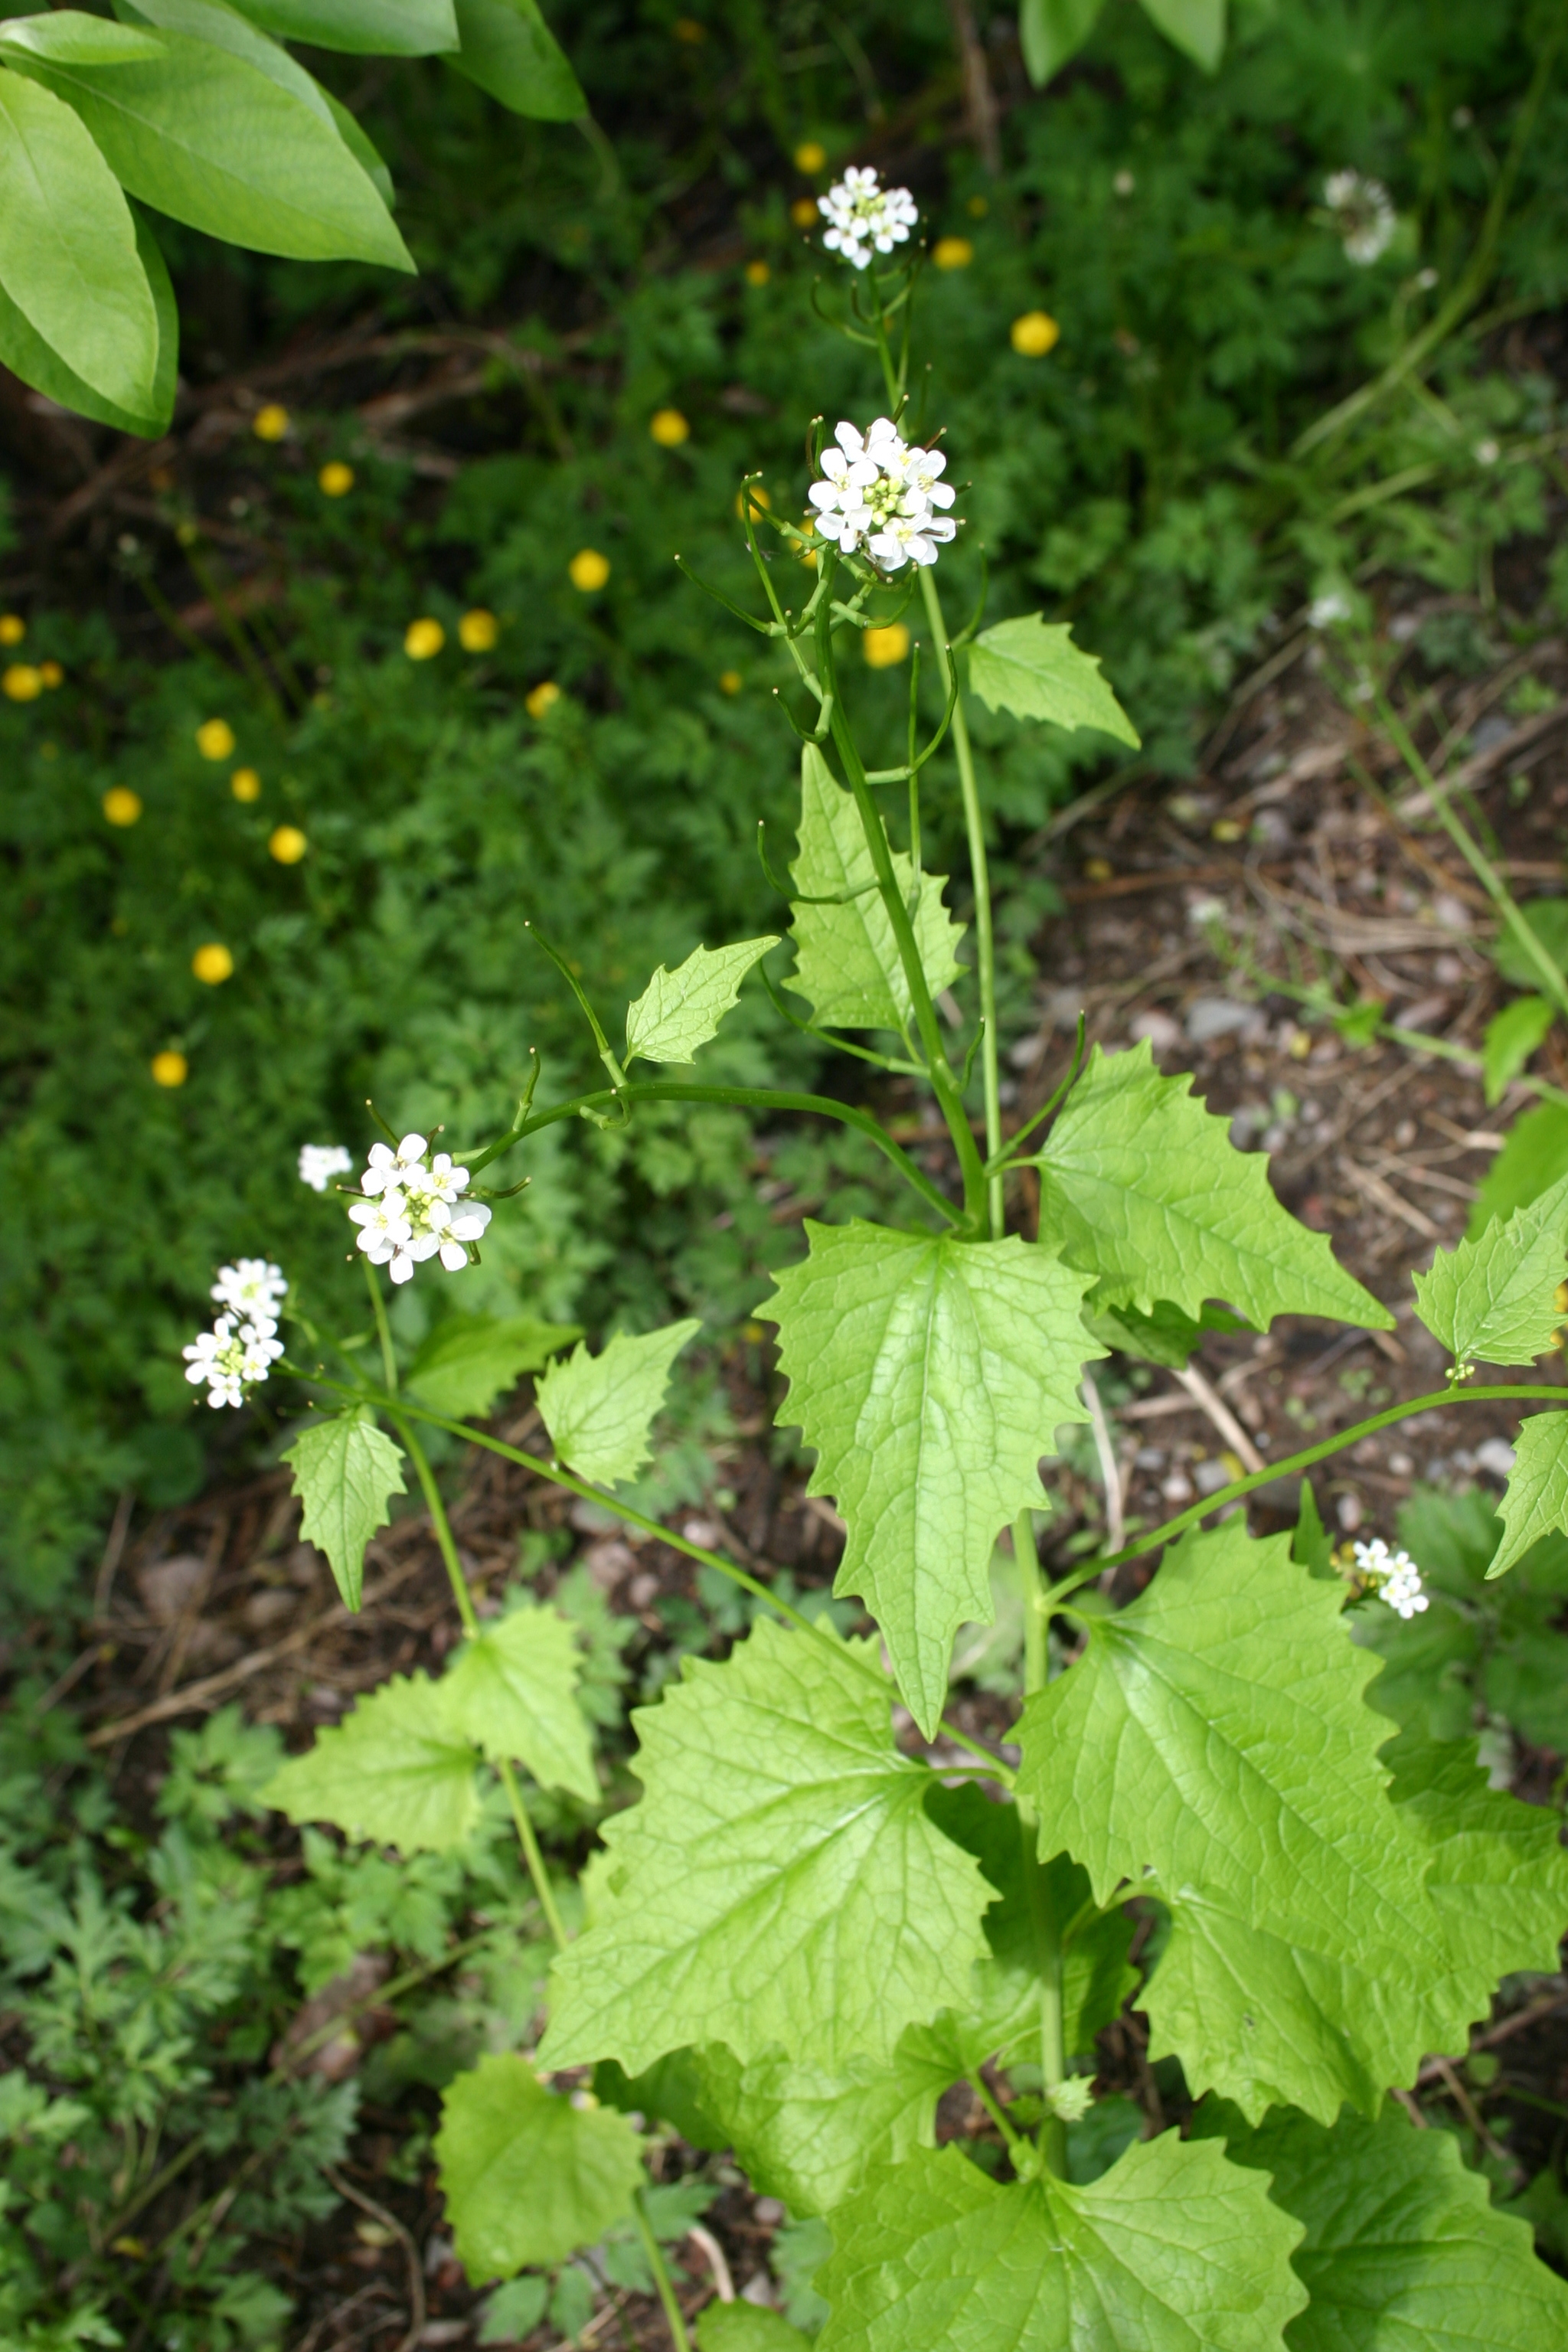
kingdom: Plantae
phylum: Tracheophyta
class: Magnoliopsida
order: Brassicales
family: Brassicaceae
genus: Alliaria
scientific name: Alliaria petiolata
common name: Garlic mustard
